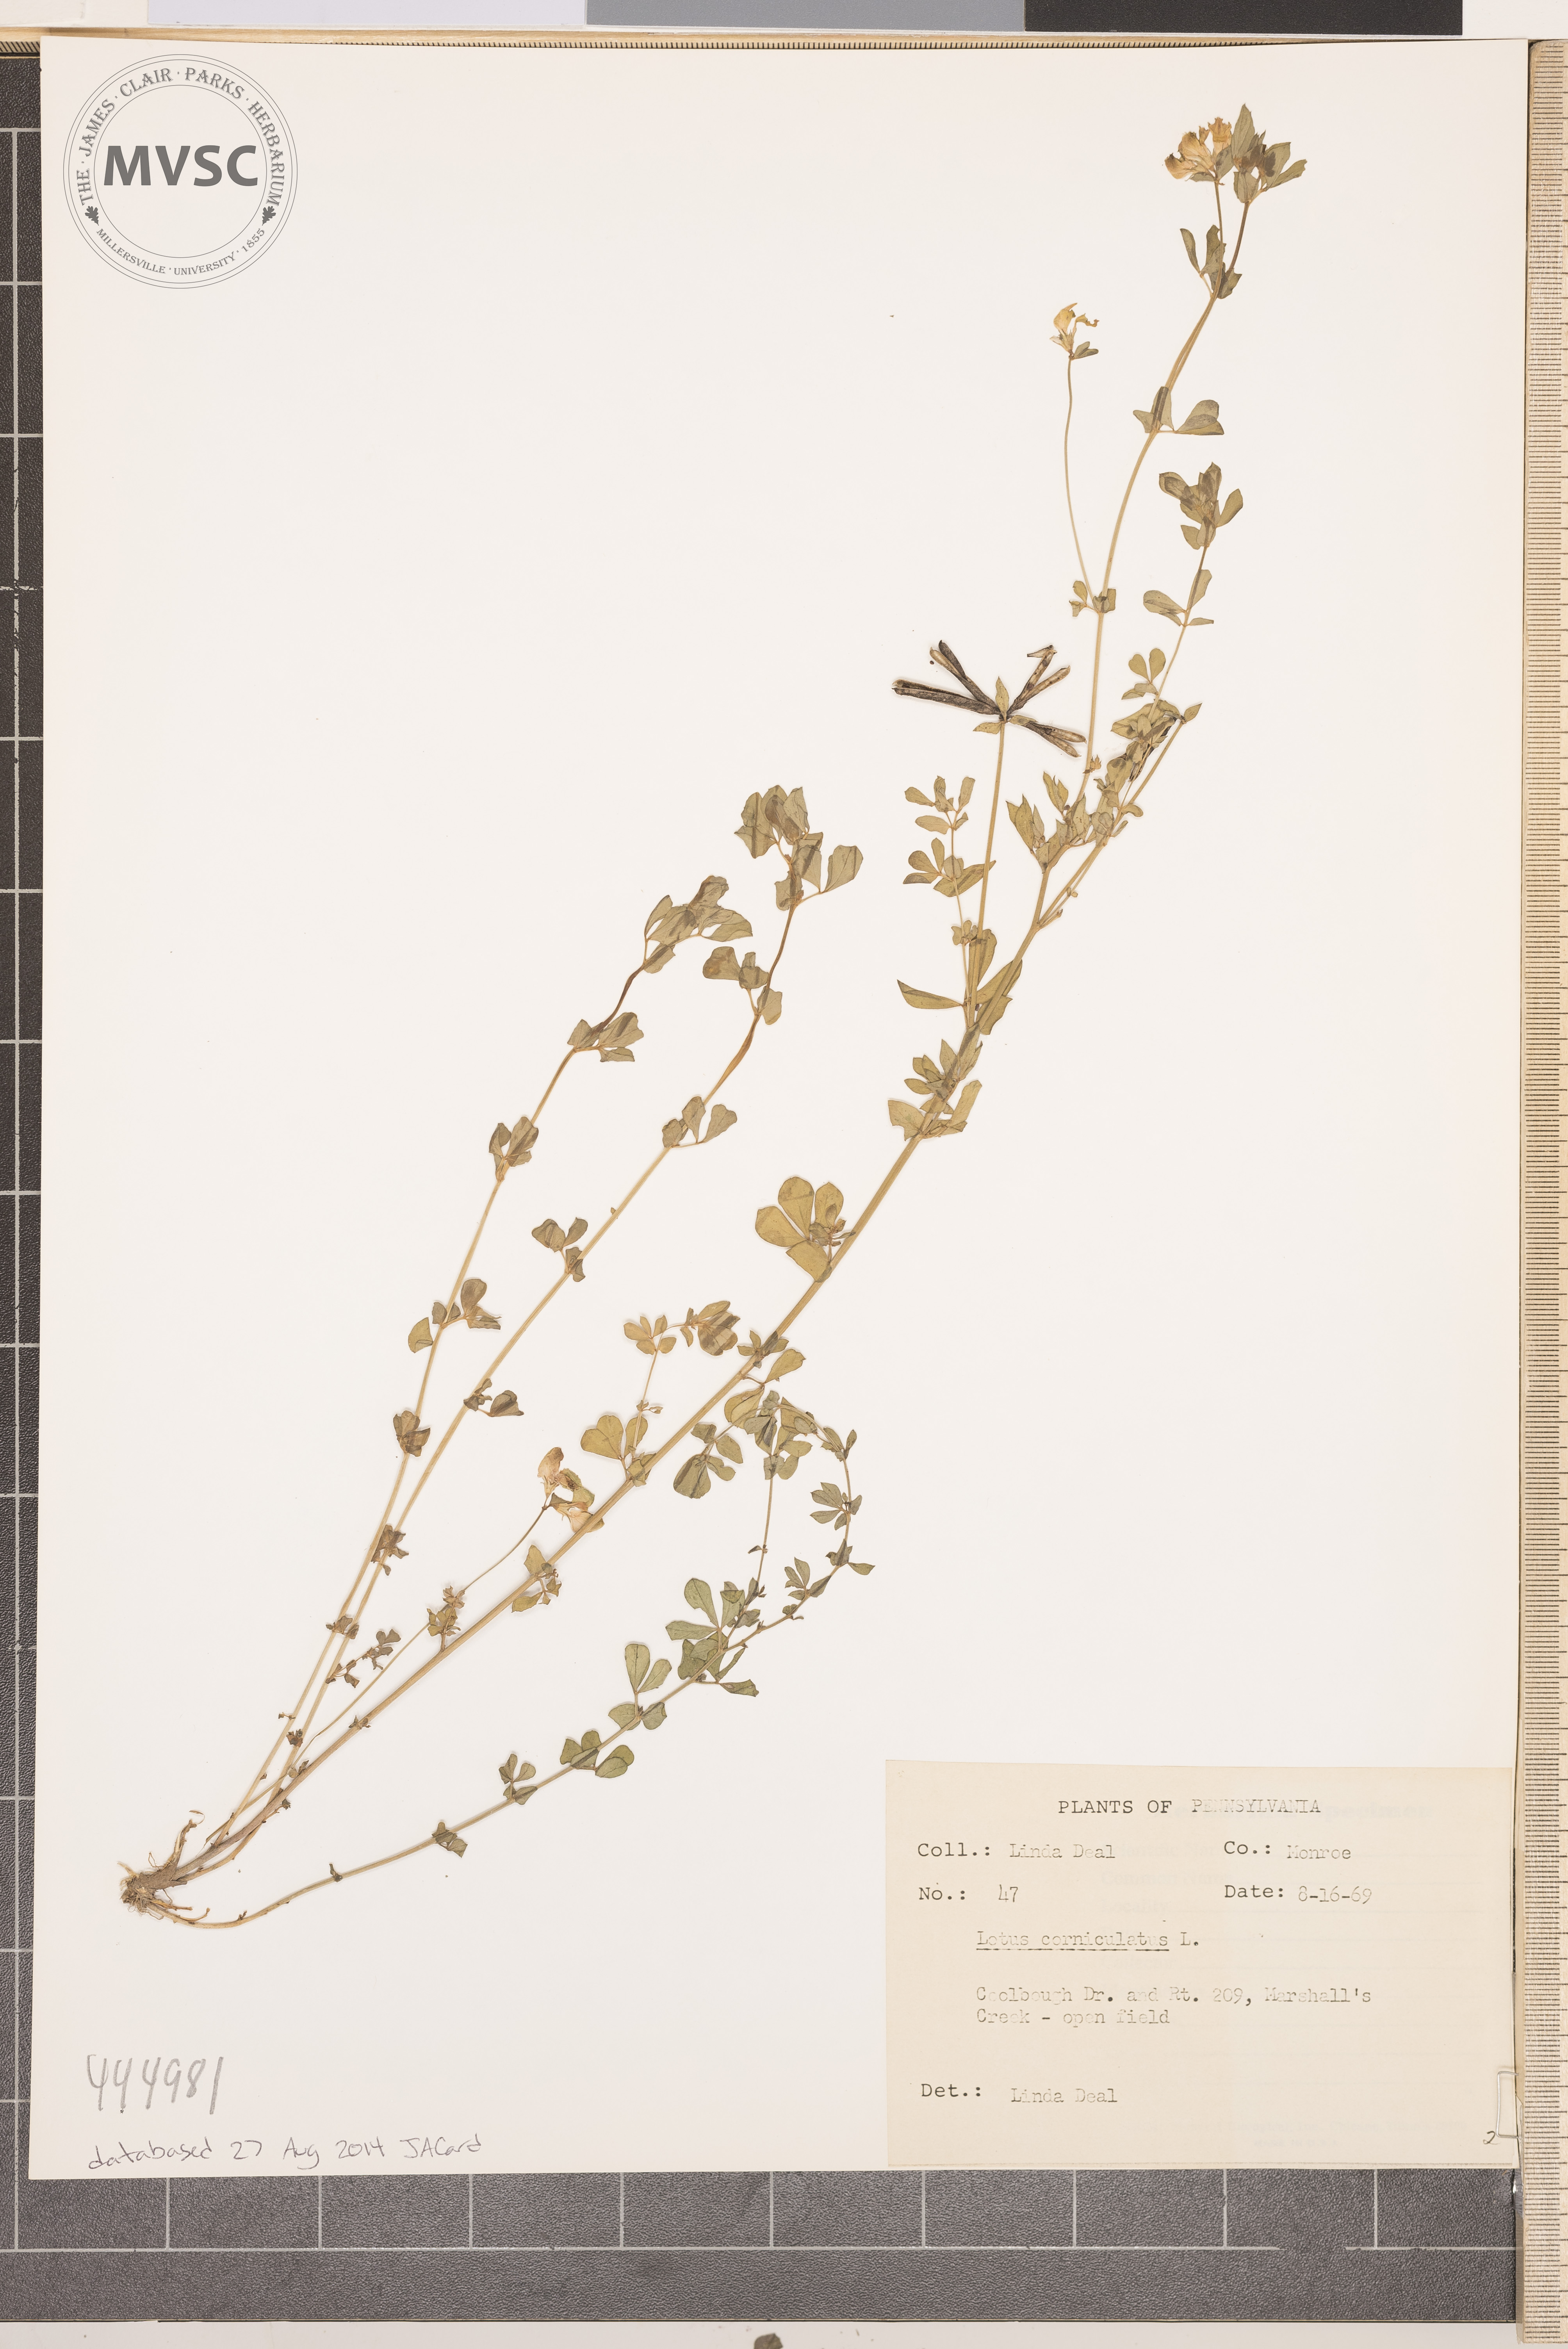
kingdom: Plantae
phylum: Tracheophyta
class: Magnoliopsida
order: Fabales
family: Fabaceae
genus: Lotus
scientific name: Lotus corniculatus
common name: Common bird's-foot-trefoil
